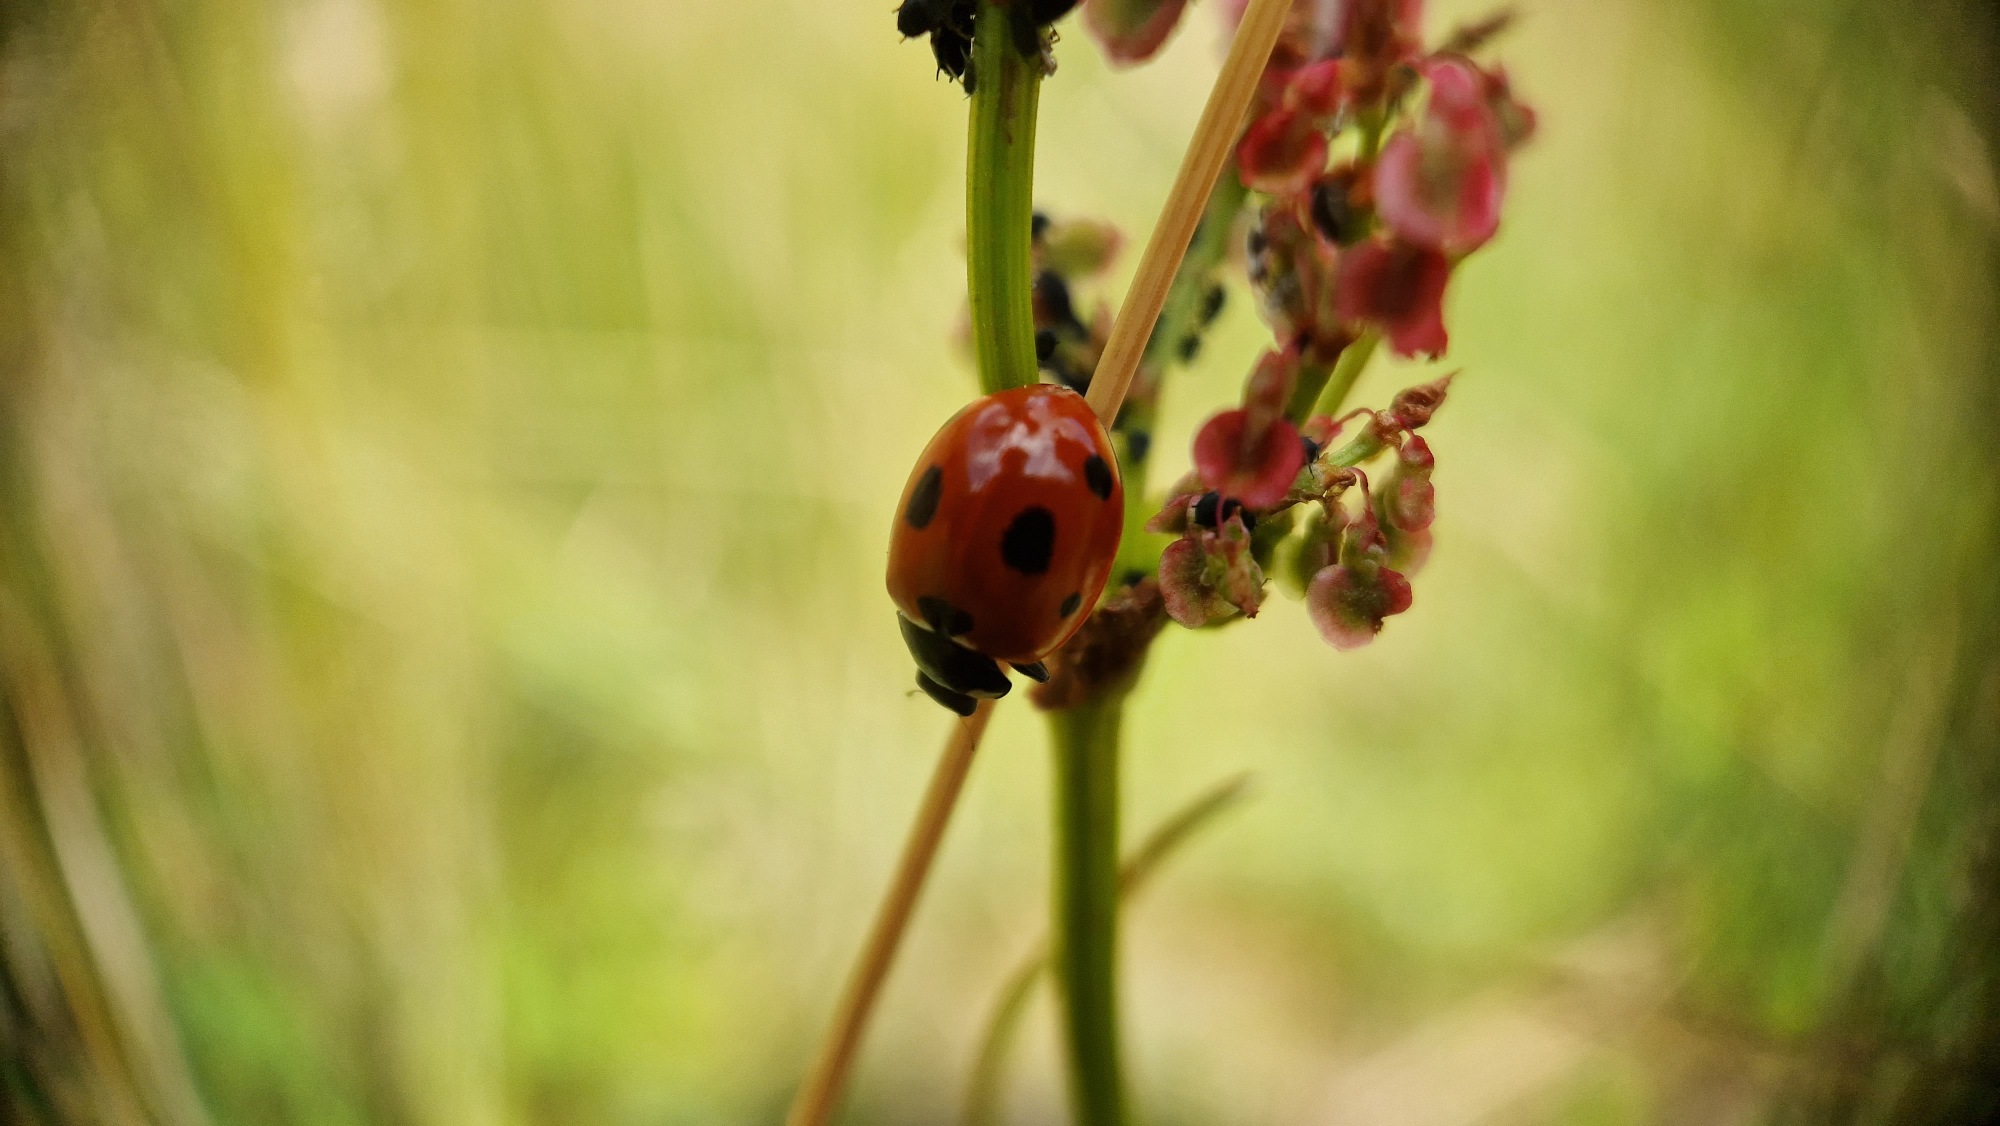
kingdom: Animalia
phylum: Arthropoda
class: Insecta
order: Coleoptera
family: Coccinellidae
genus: Coccinella
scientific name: Coccinella septempunctata
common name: Syvplettet mariehøne
